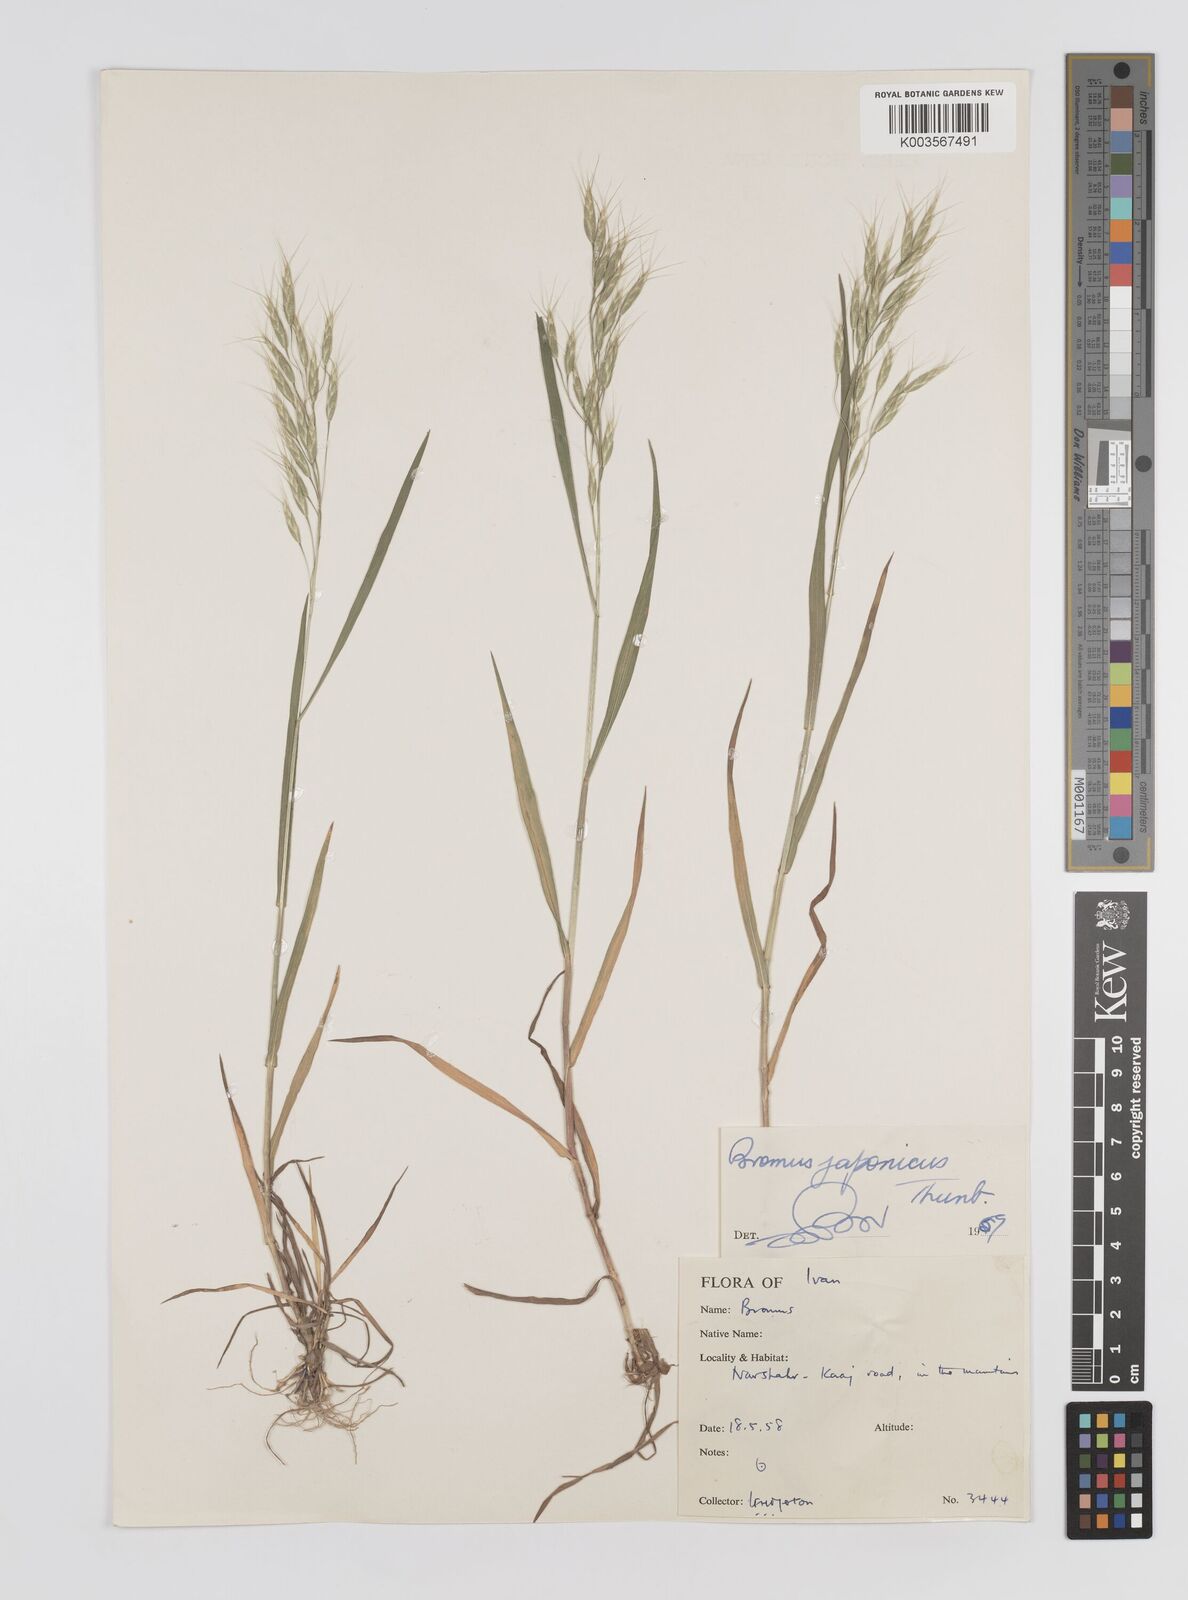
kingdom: Plantae
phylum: Tracheophyta
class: Liliopsida
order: Poales
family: Poaceae
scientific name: Poaceae
